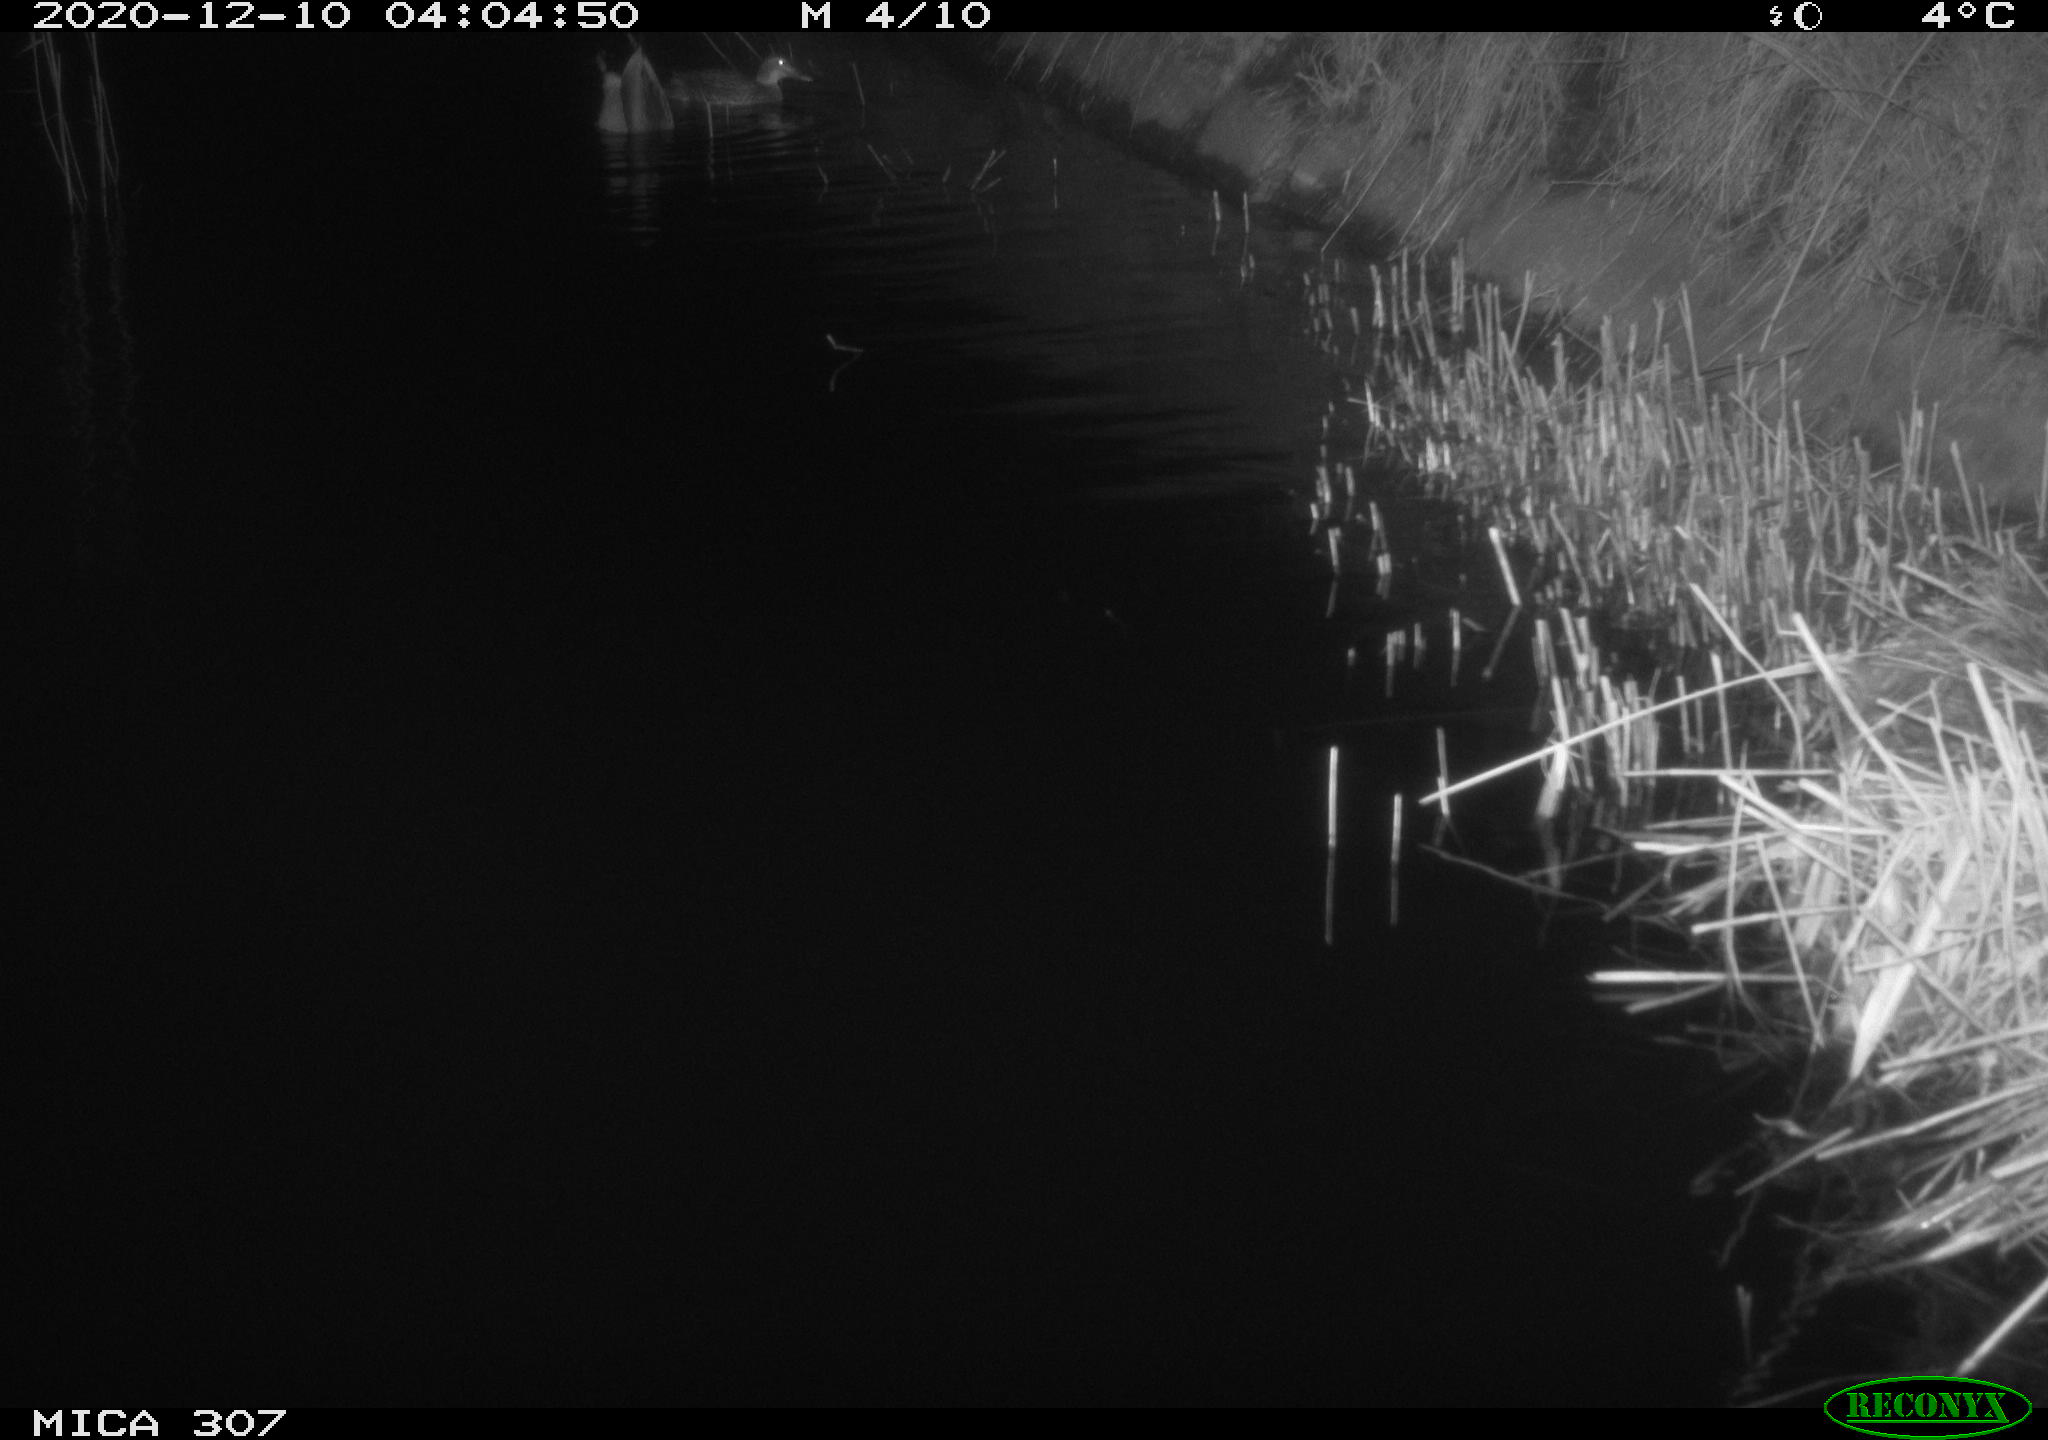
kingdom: Animalia
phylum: Chordata
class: Aves
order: Anseriformes
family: Anatidae
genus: Anas
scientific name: Anas platyrhynchos
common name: Mallard
